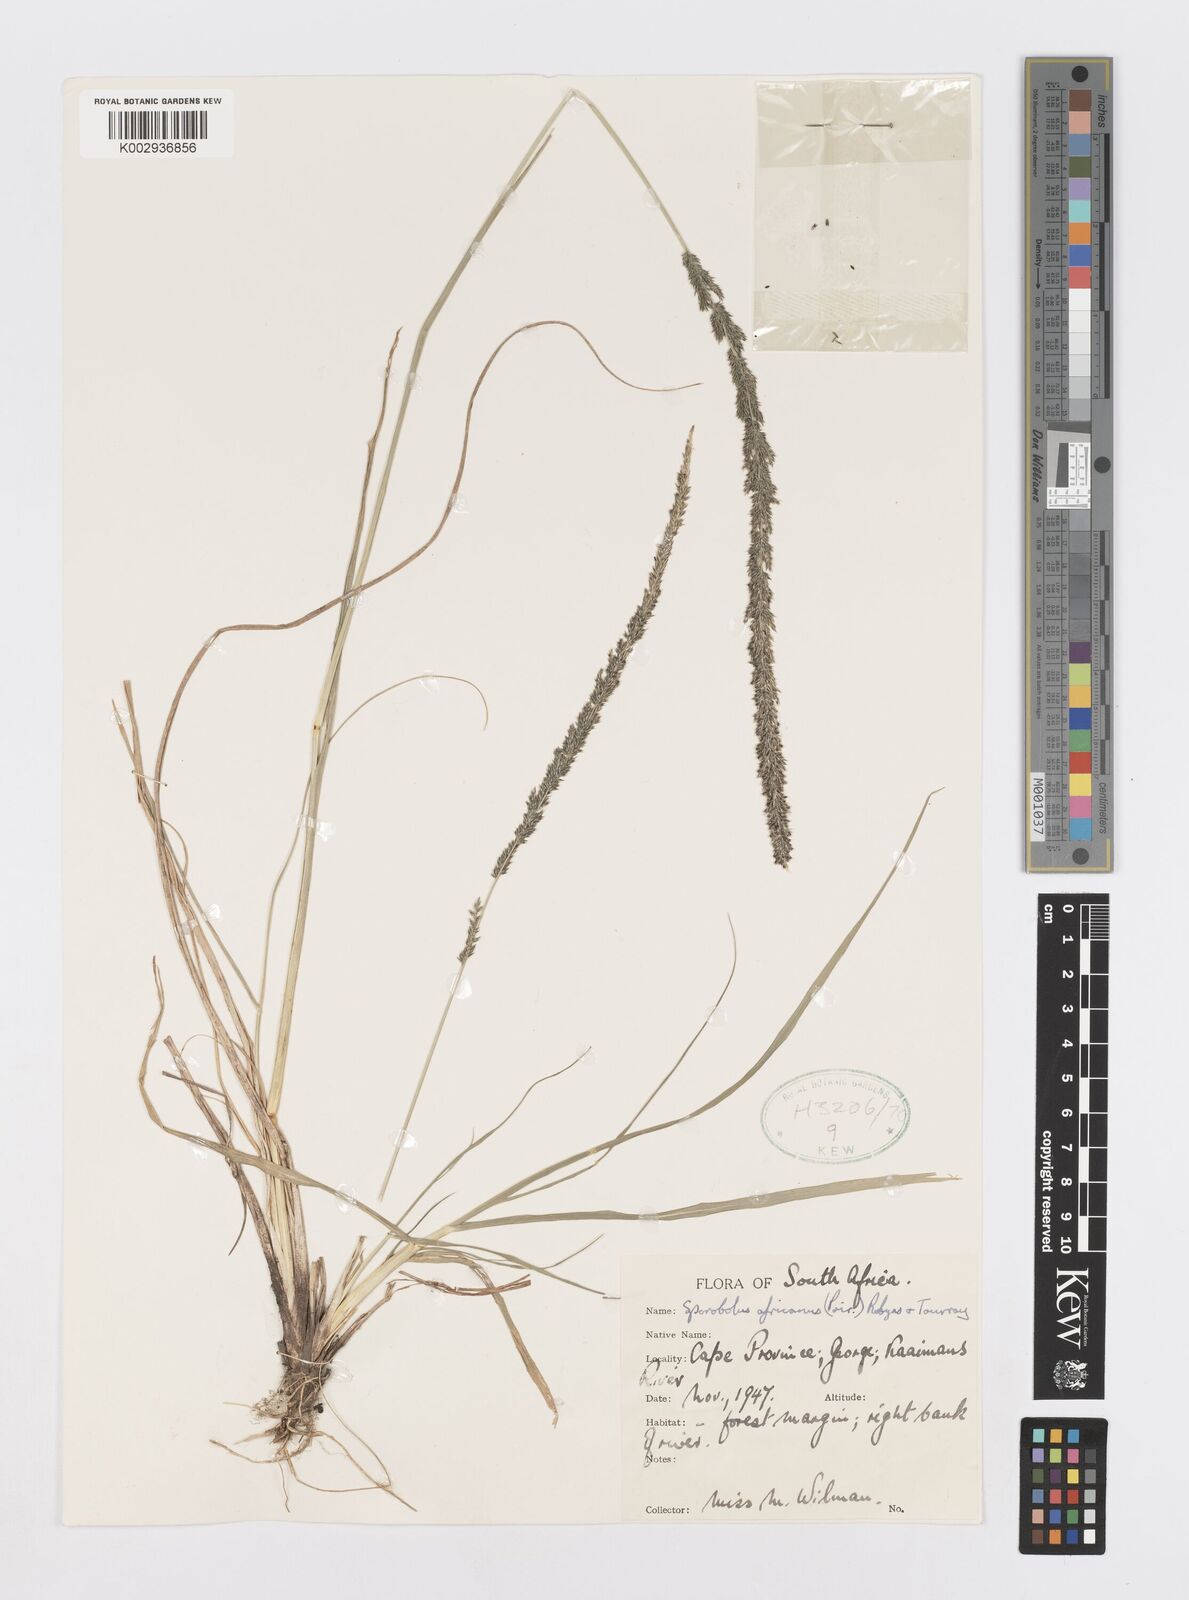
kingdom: Plantae
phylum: Tracheophyta
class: Liliopsida
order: Poales
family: Poaceae
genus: Sporobolus
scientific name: Sporobolus africanus
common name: African dropseed
